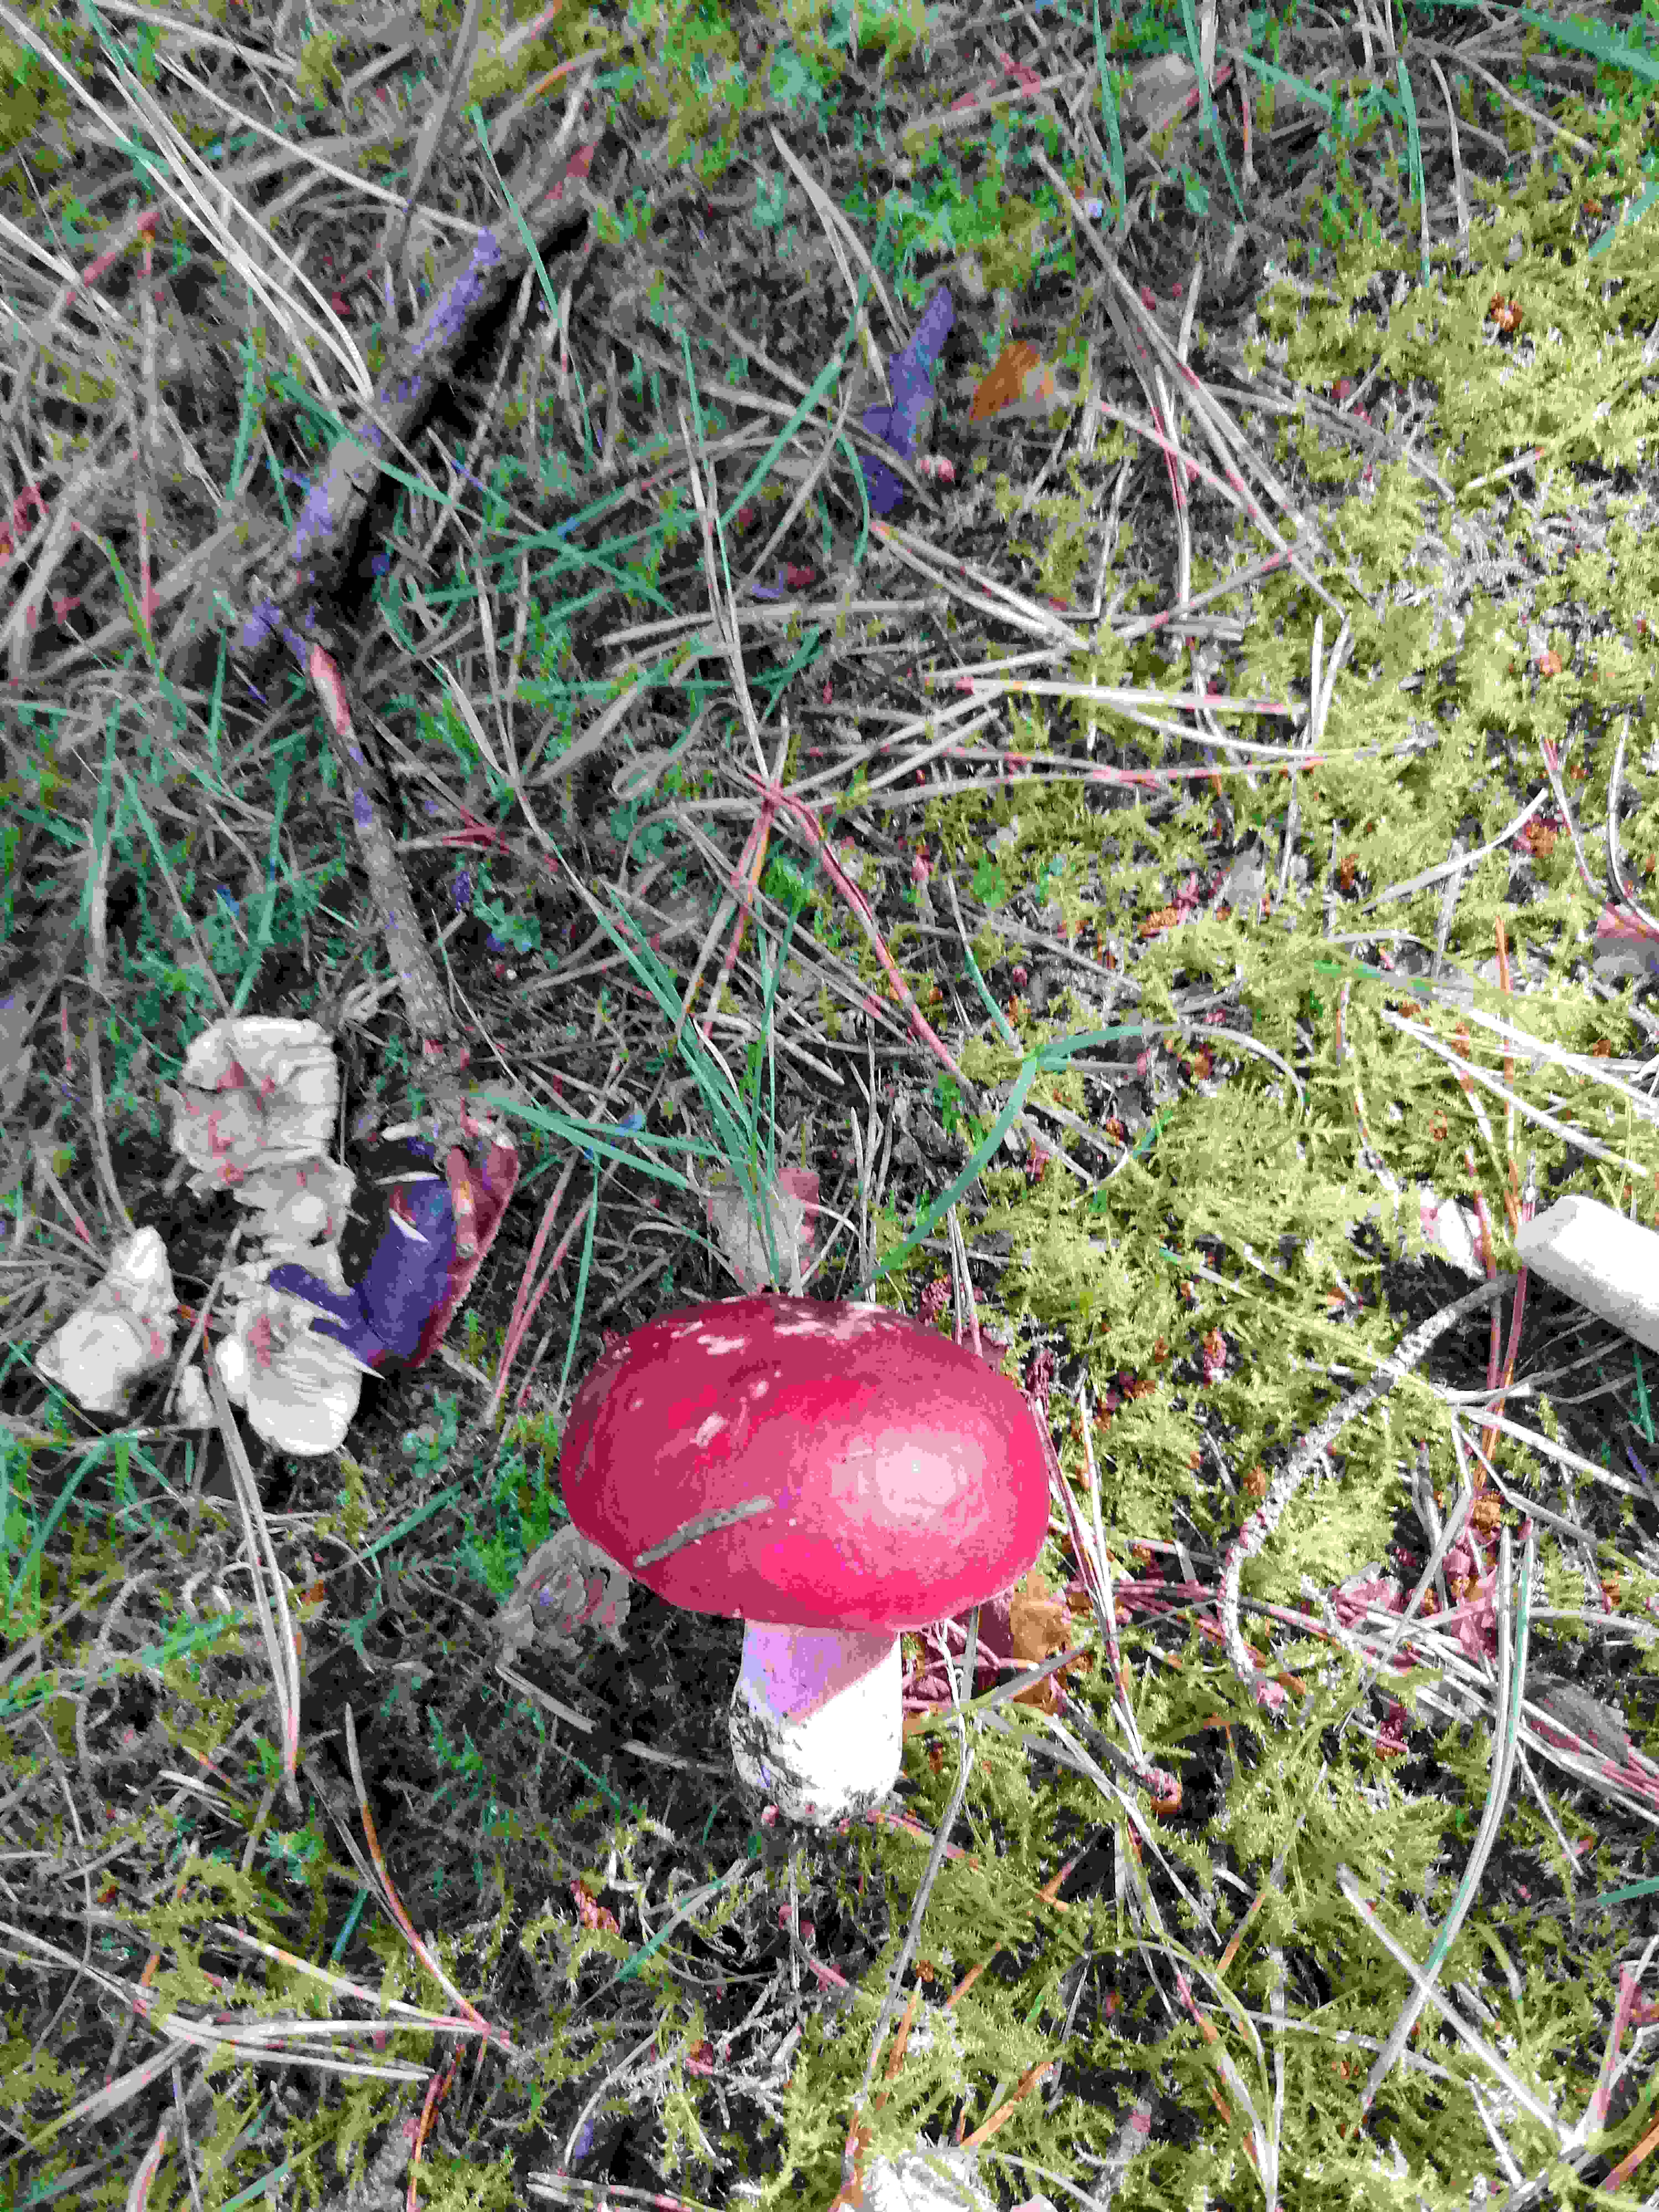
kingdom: Fungi
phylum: Basidiomycota
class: Agaricomycetes
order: Russulales
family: Russulaceae
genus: Russula
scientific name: Russula paludosa
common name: prægtig skørhat
